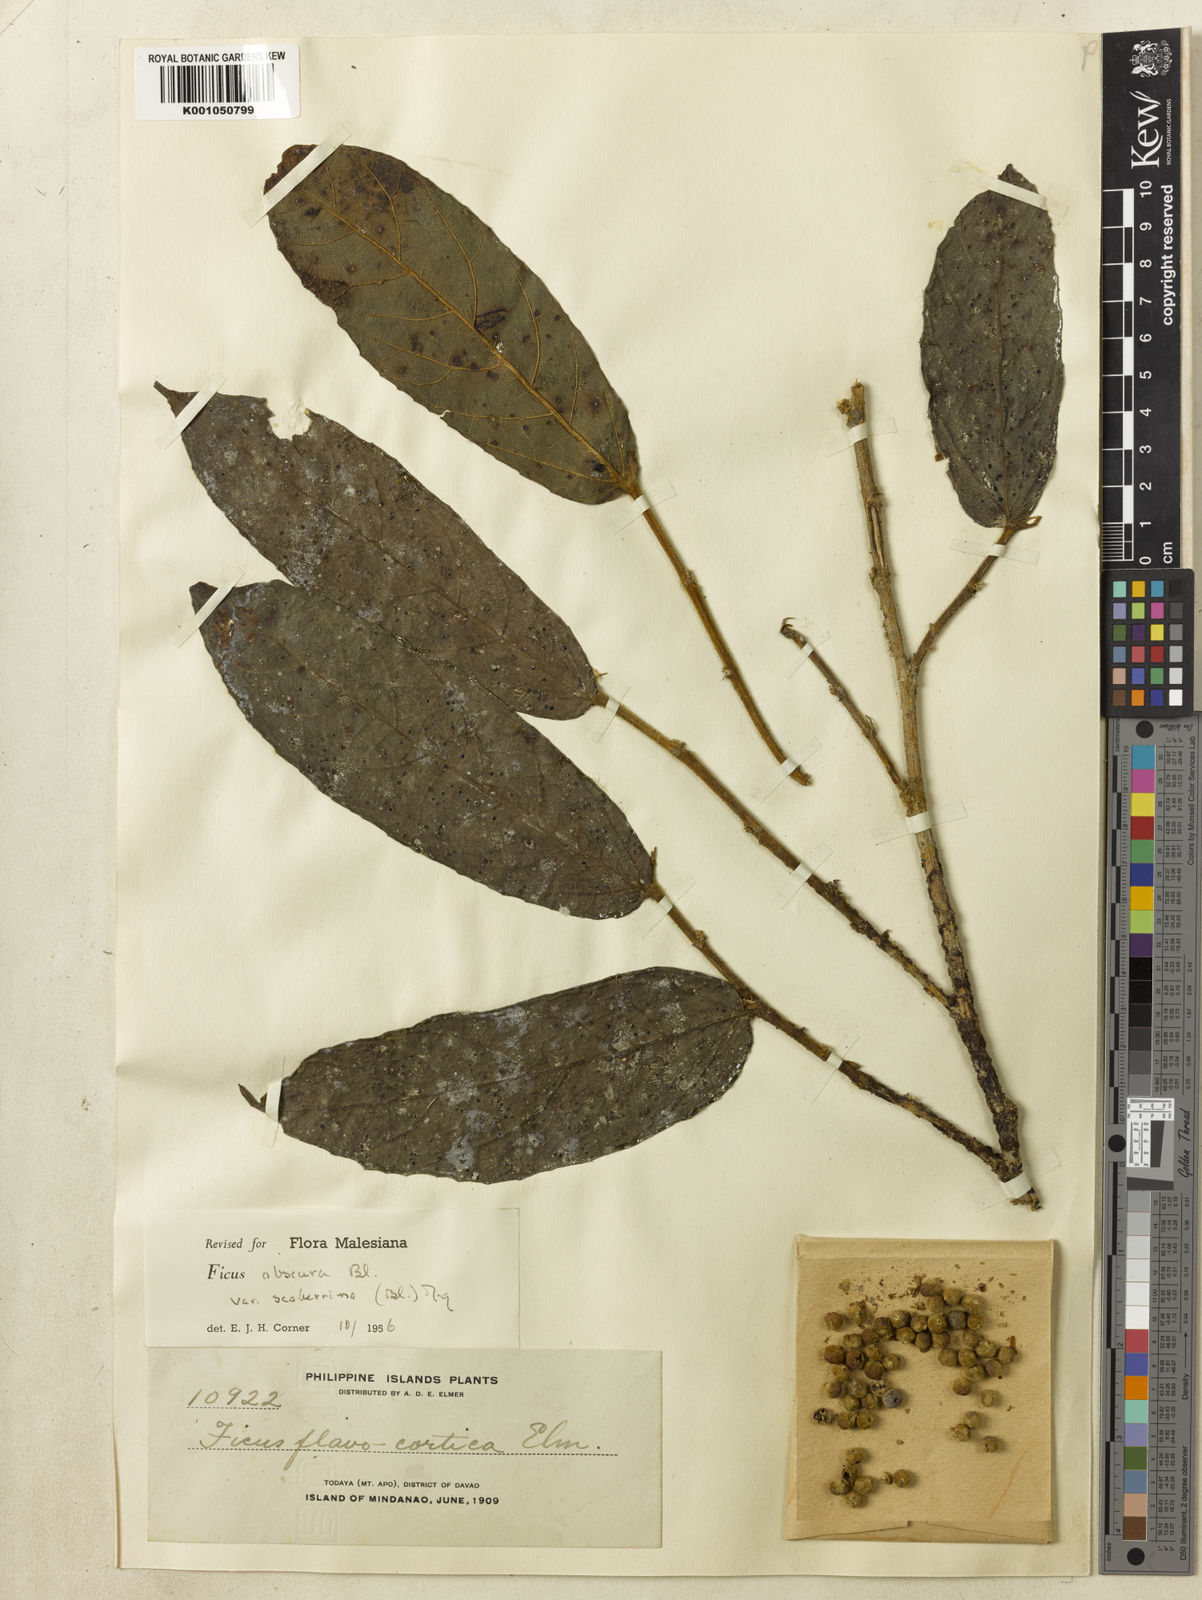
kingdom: Plantae
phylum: Tracheophyta
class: Magnoliopsida
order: Rosales
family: Moraceae
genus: Ficus
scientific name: Ficus obscura
